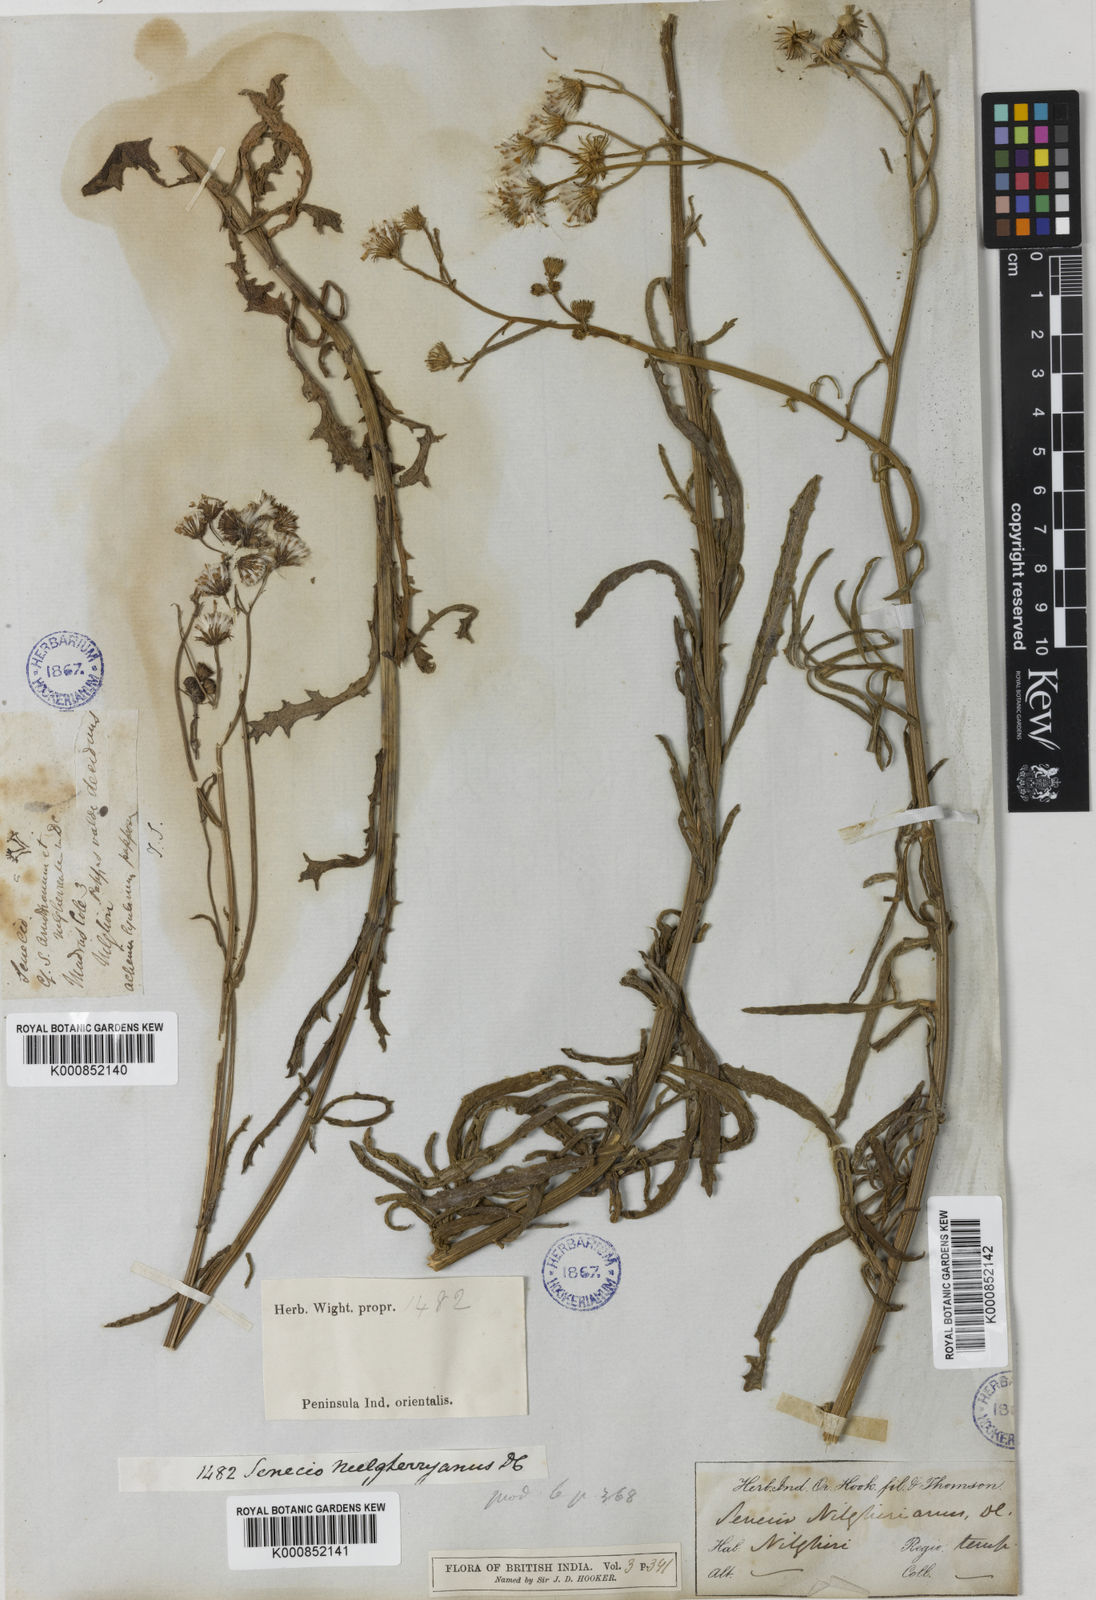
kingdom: Plantae
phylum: Tracheophyta
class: Magnoliopsida
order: Asterales
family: Asteraceae
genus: Senecio
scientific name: Senecio neelgherryanus
